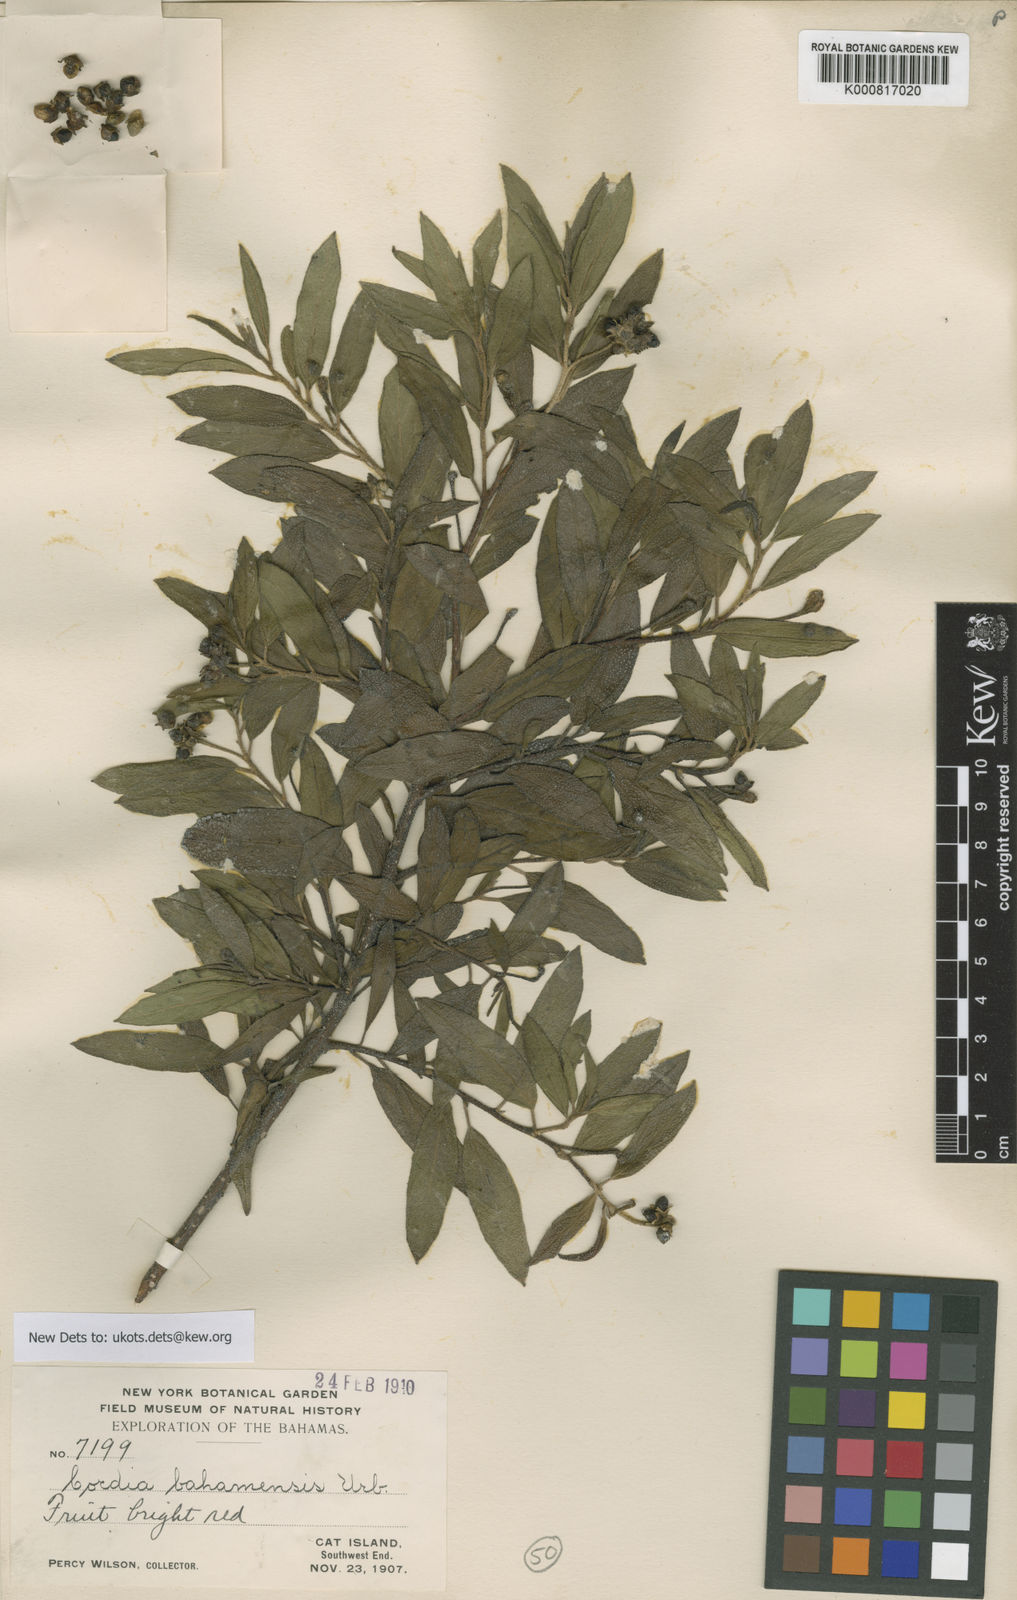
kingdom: Plantae
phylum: Tracheophyta
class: Magnoliopsida
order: Boraginales
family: Cordiaceae
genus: Varronia
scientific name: Varronia bahamensis
